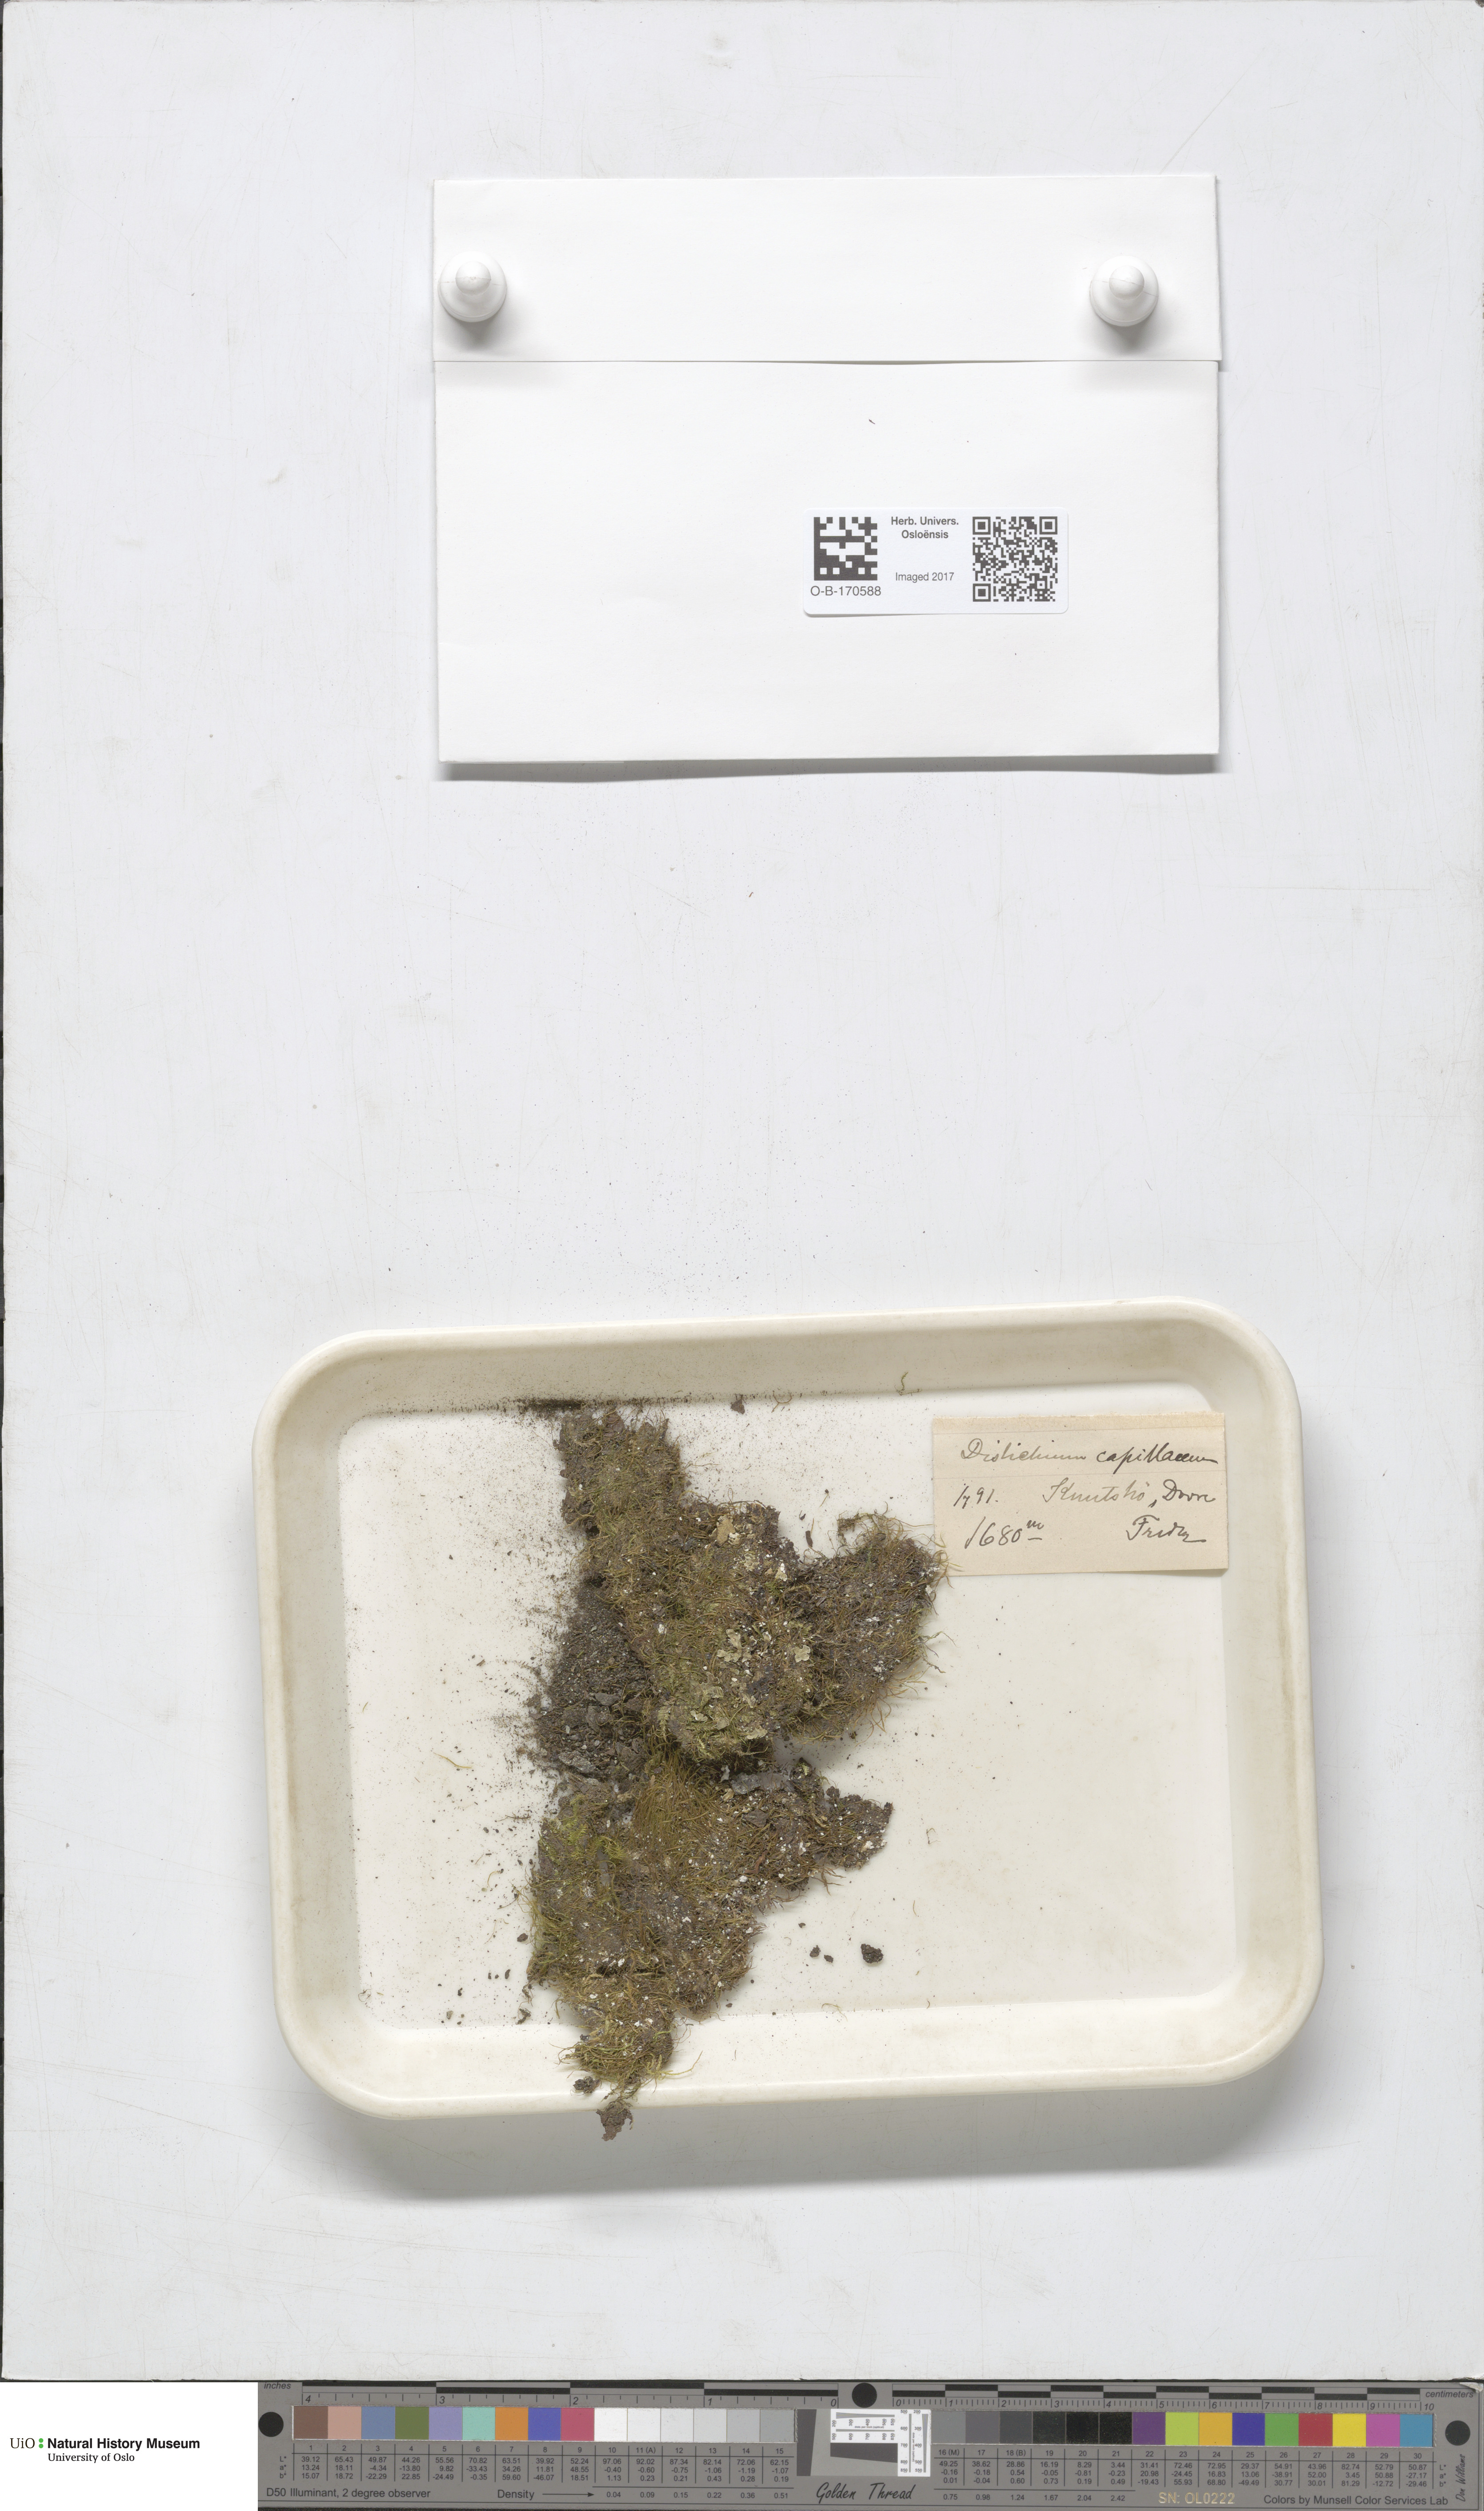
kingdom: Plantae
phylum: Bryophyta
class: Bryopsida
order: Scouleriales
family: Distichiaceae
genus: Distichium
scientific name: Distichium capillaceum
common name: Erect-fruited iris moss
